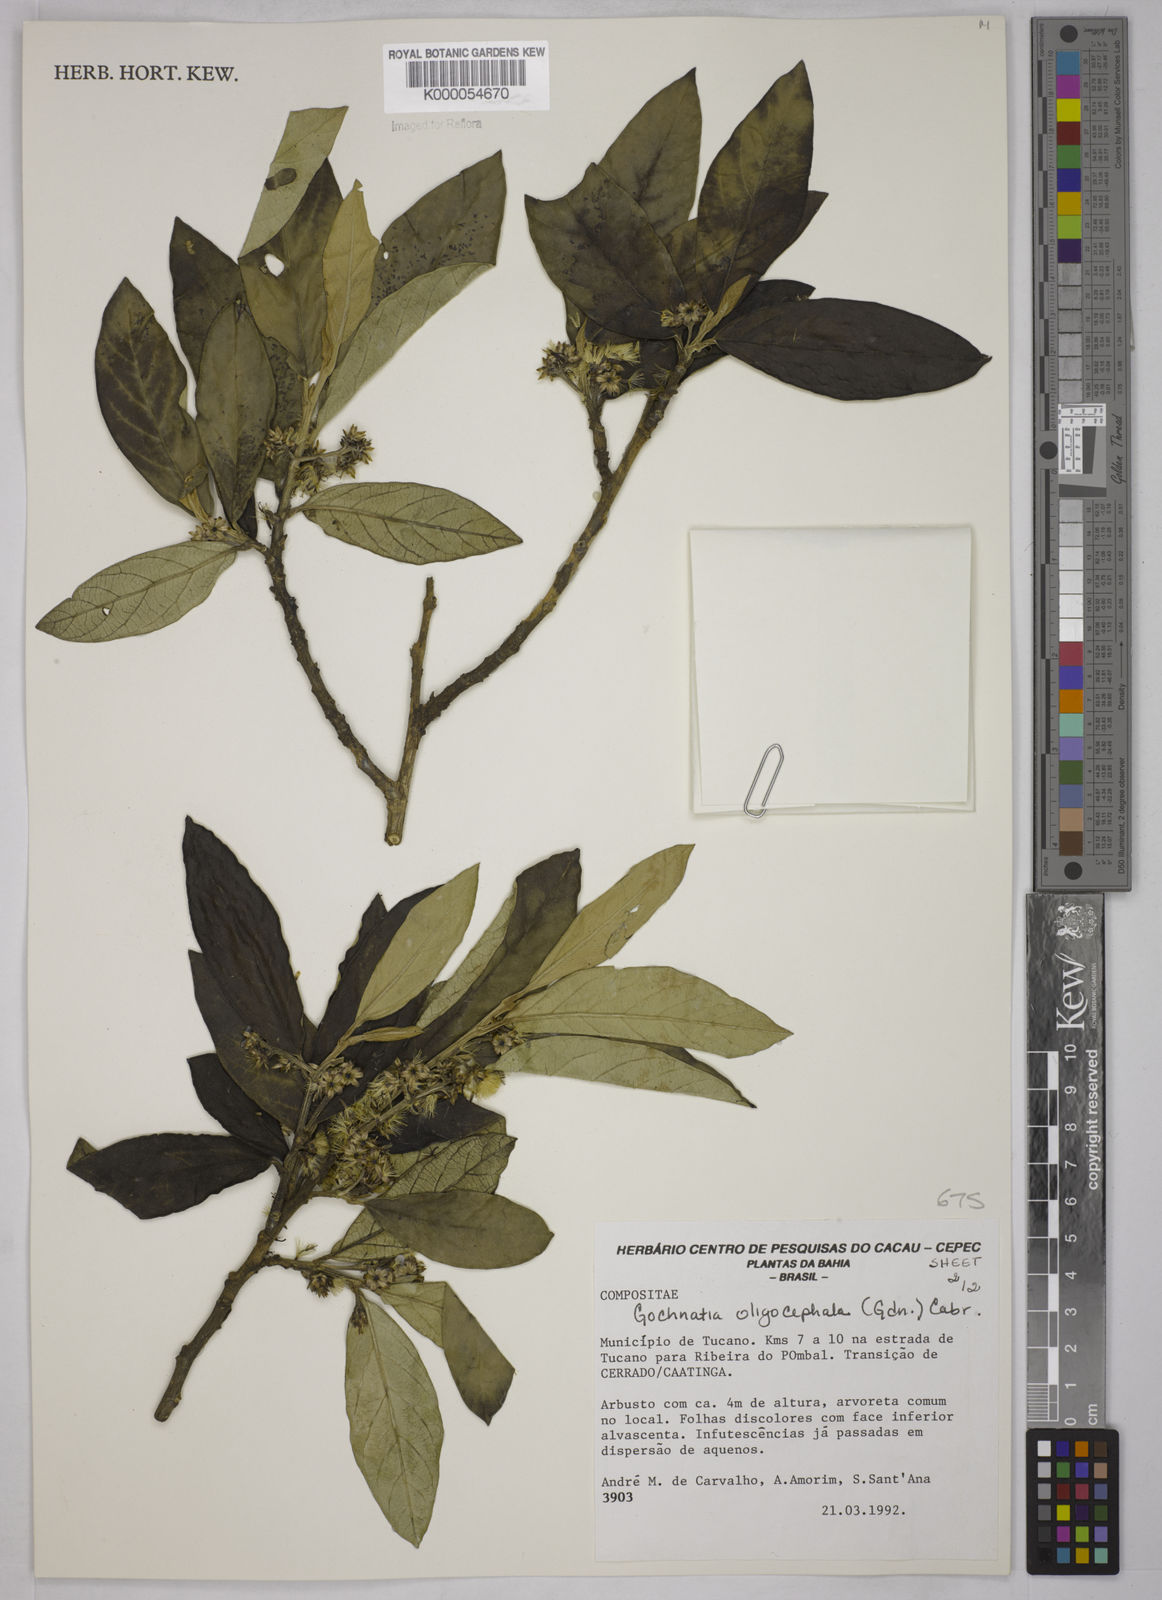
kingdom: Plantae
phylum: Tracheophyta
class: Magnoliopsida
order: Asterales
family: Asteraceae
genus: Moquiniastrum
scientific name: Moquiniastrum oligocephalum
